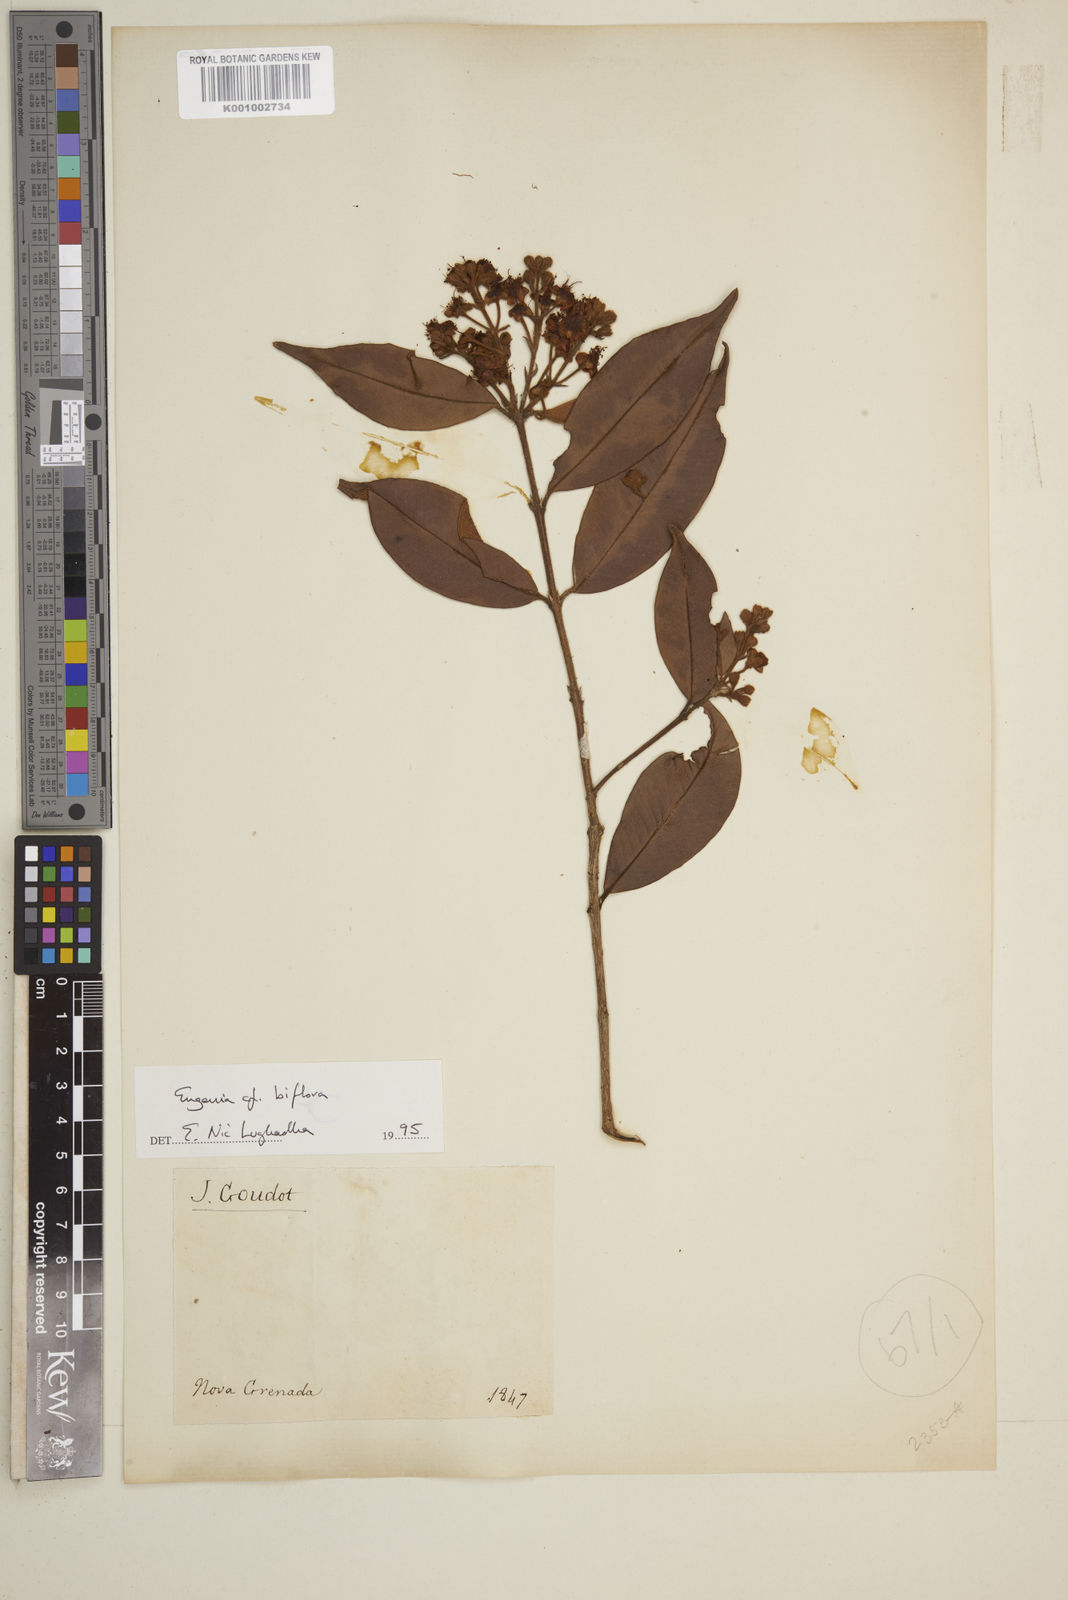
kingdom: Plantae
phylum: Tracheophyta
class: Magnoliopsida
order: Myrtales
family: Myrtaceae
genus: Eugenia
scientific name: Eugenia biflora
